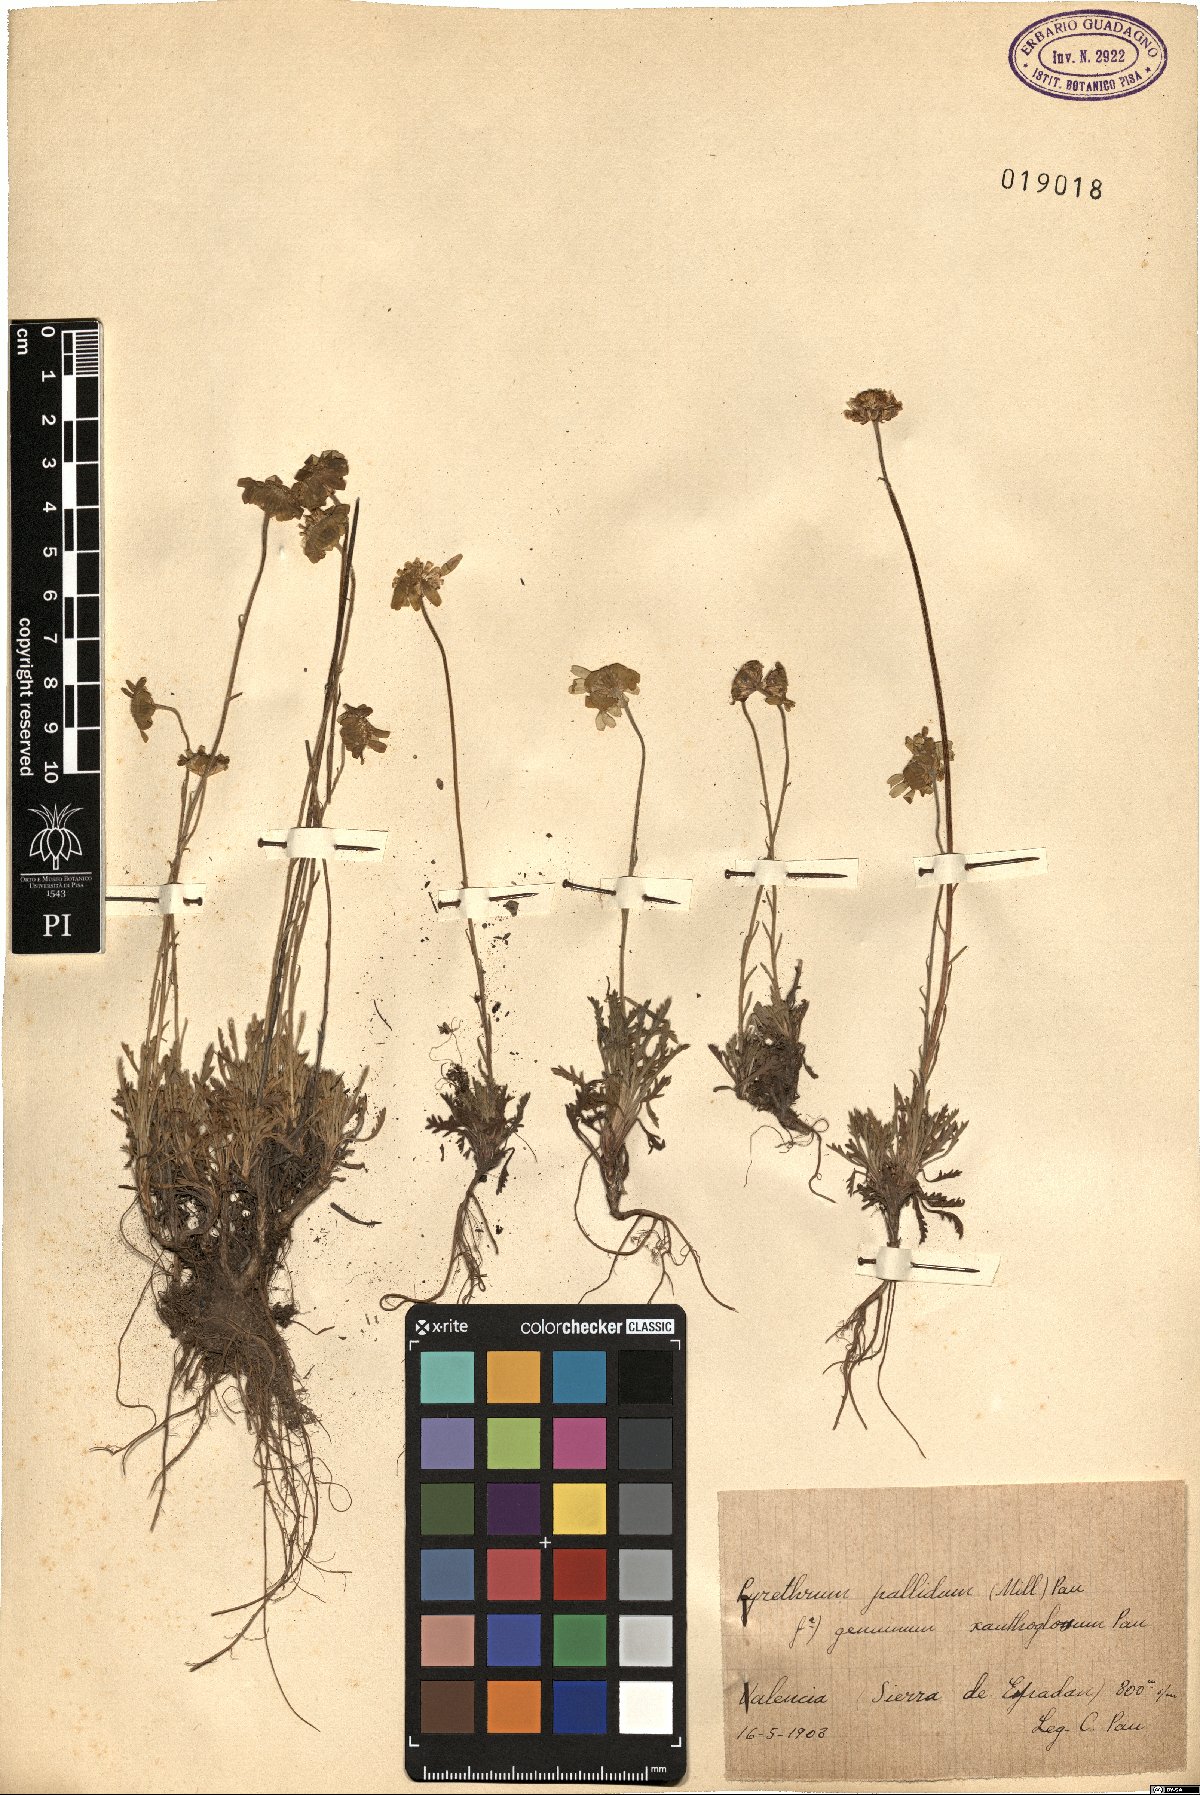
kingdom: Plantae
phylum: Tracheophyta
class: Magnoliopsida
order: Asterales
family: Asteraceae
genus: Leucanthemopsis
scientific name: Leucanthemopsis pallida
